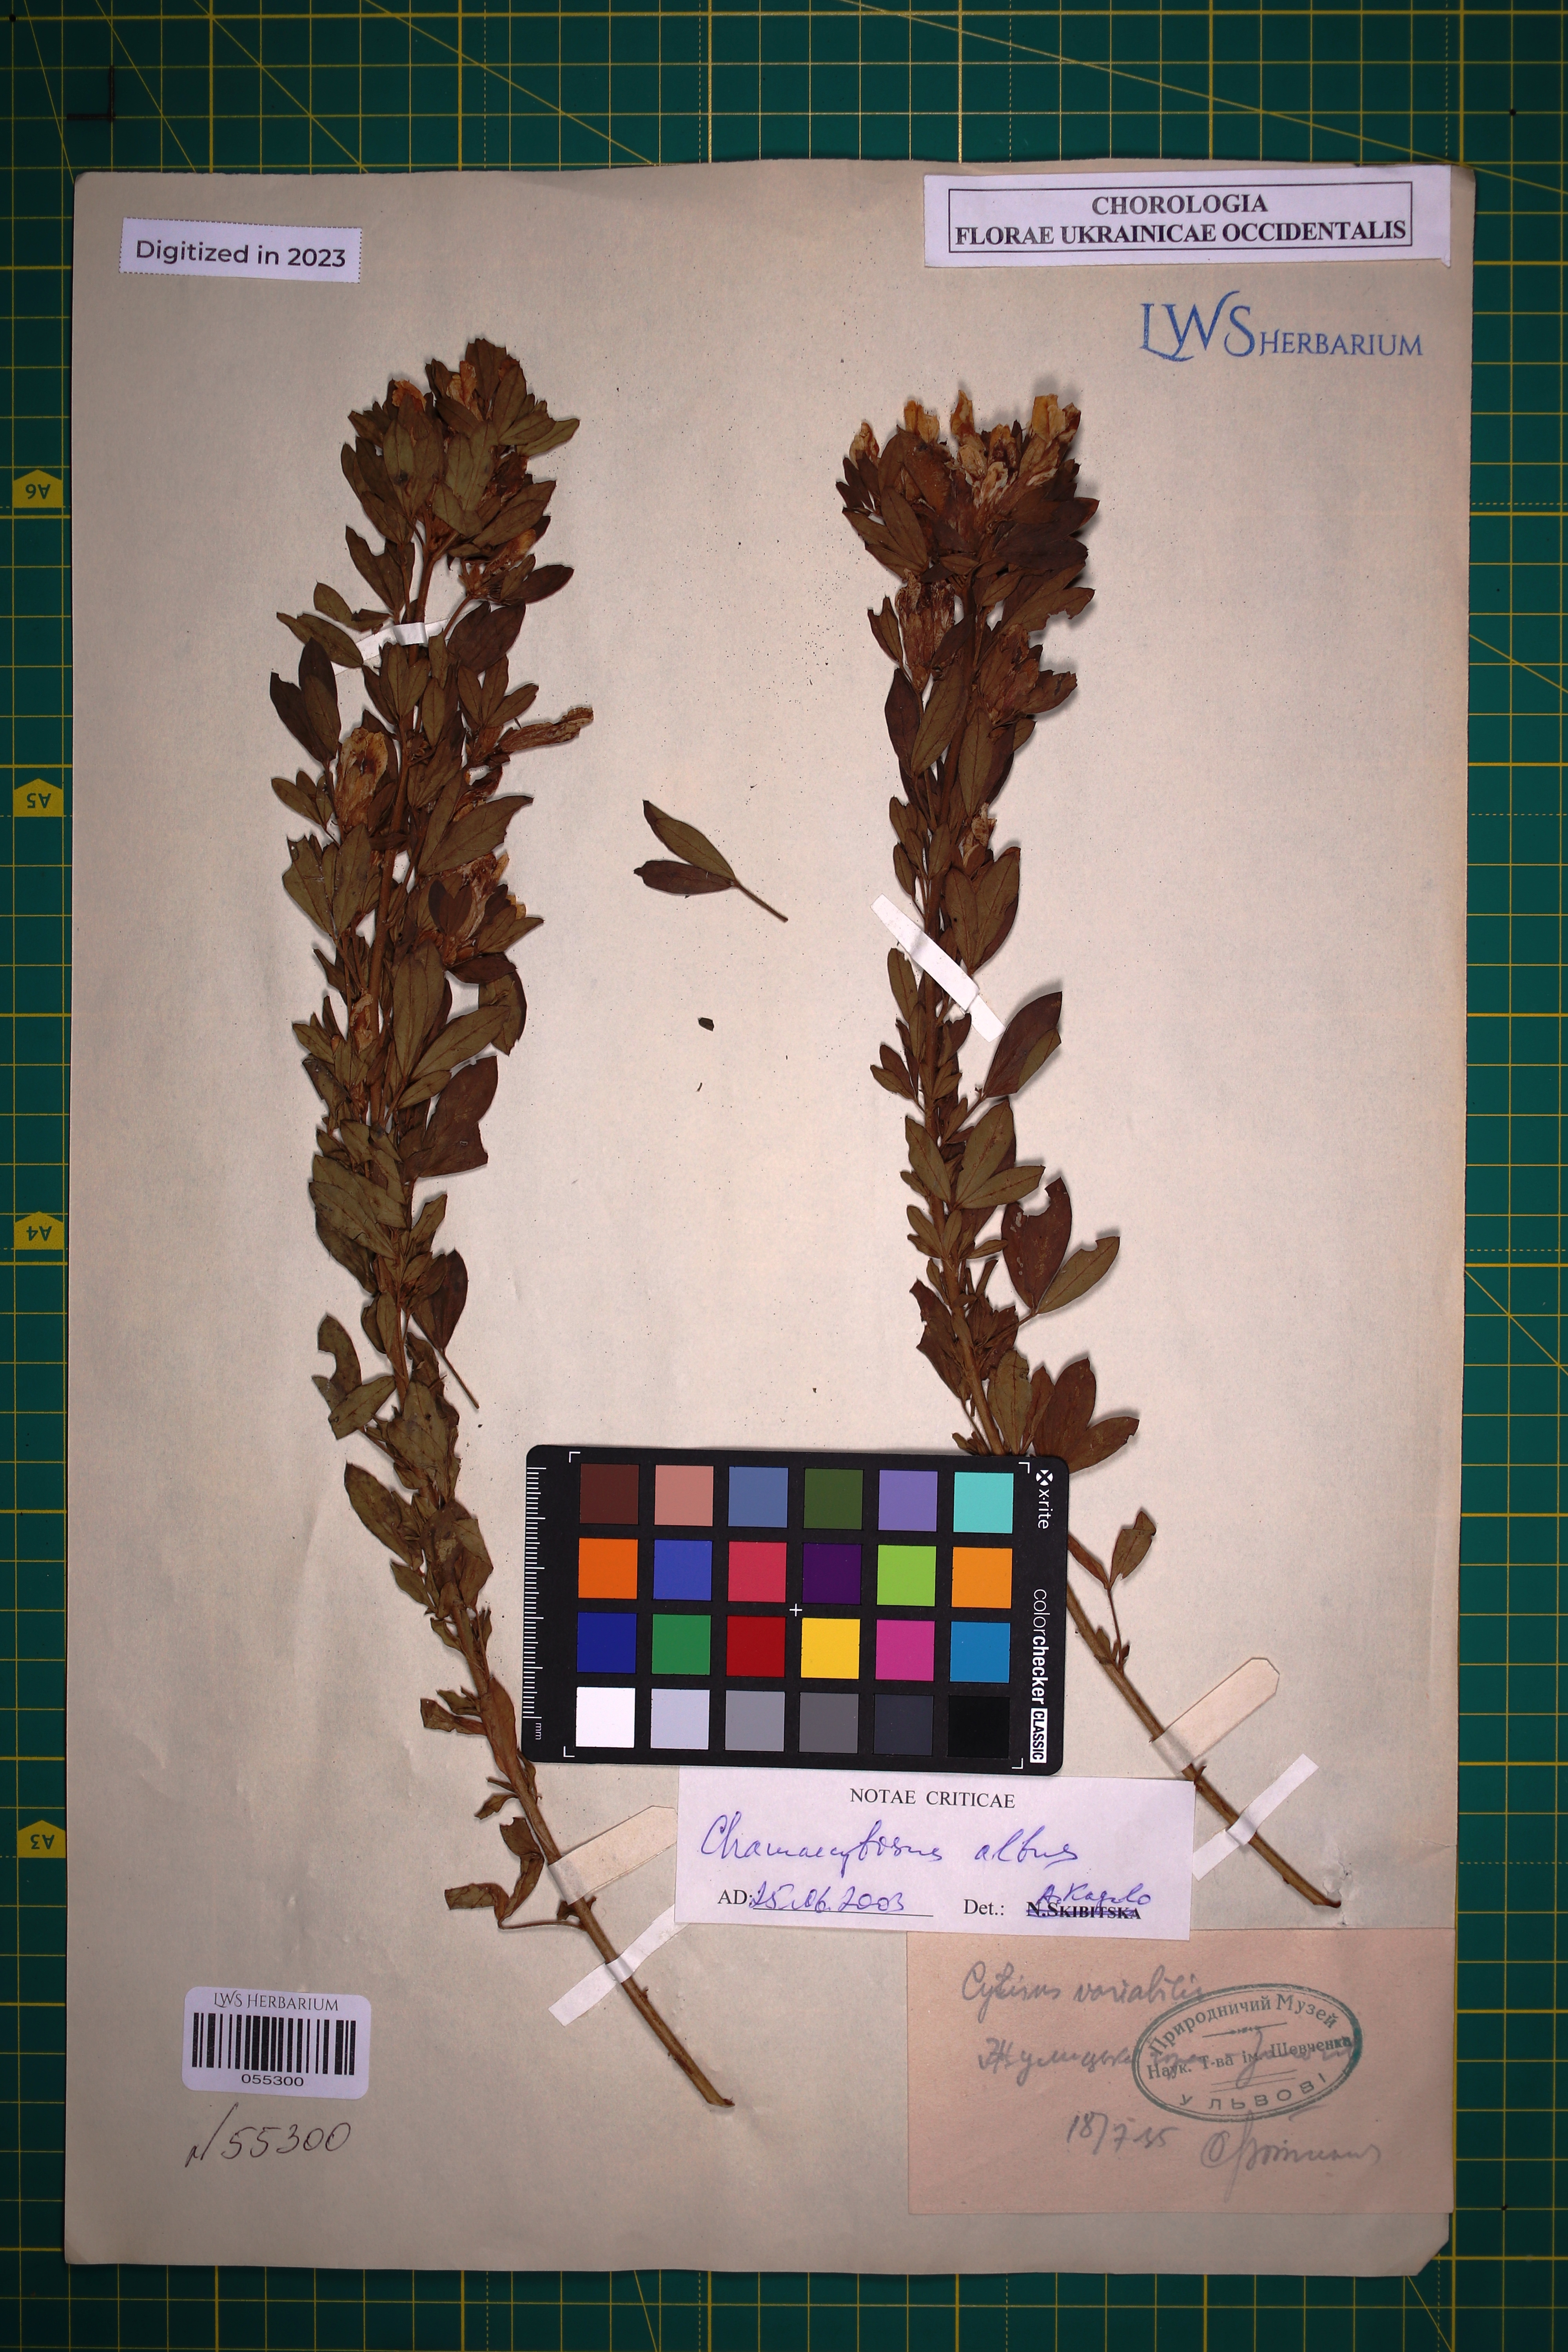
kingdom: Plantae
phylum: Tracheophyta
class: Magnoliopsida
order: Fabales
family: Fabaceae
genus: Chamaecytisus
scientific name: Chamaecytisus albus
